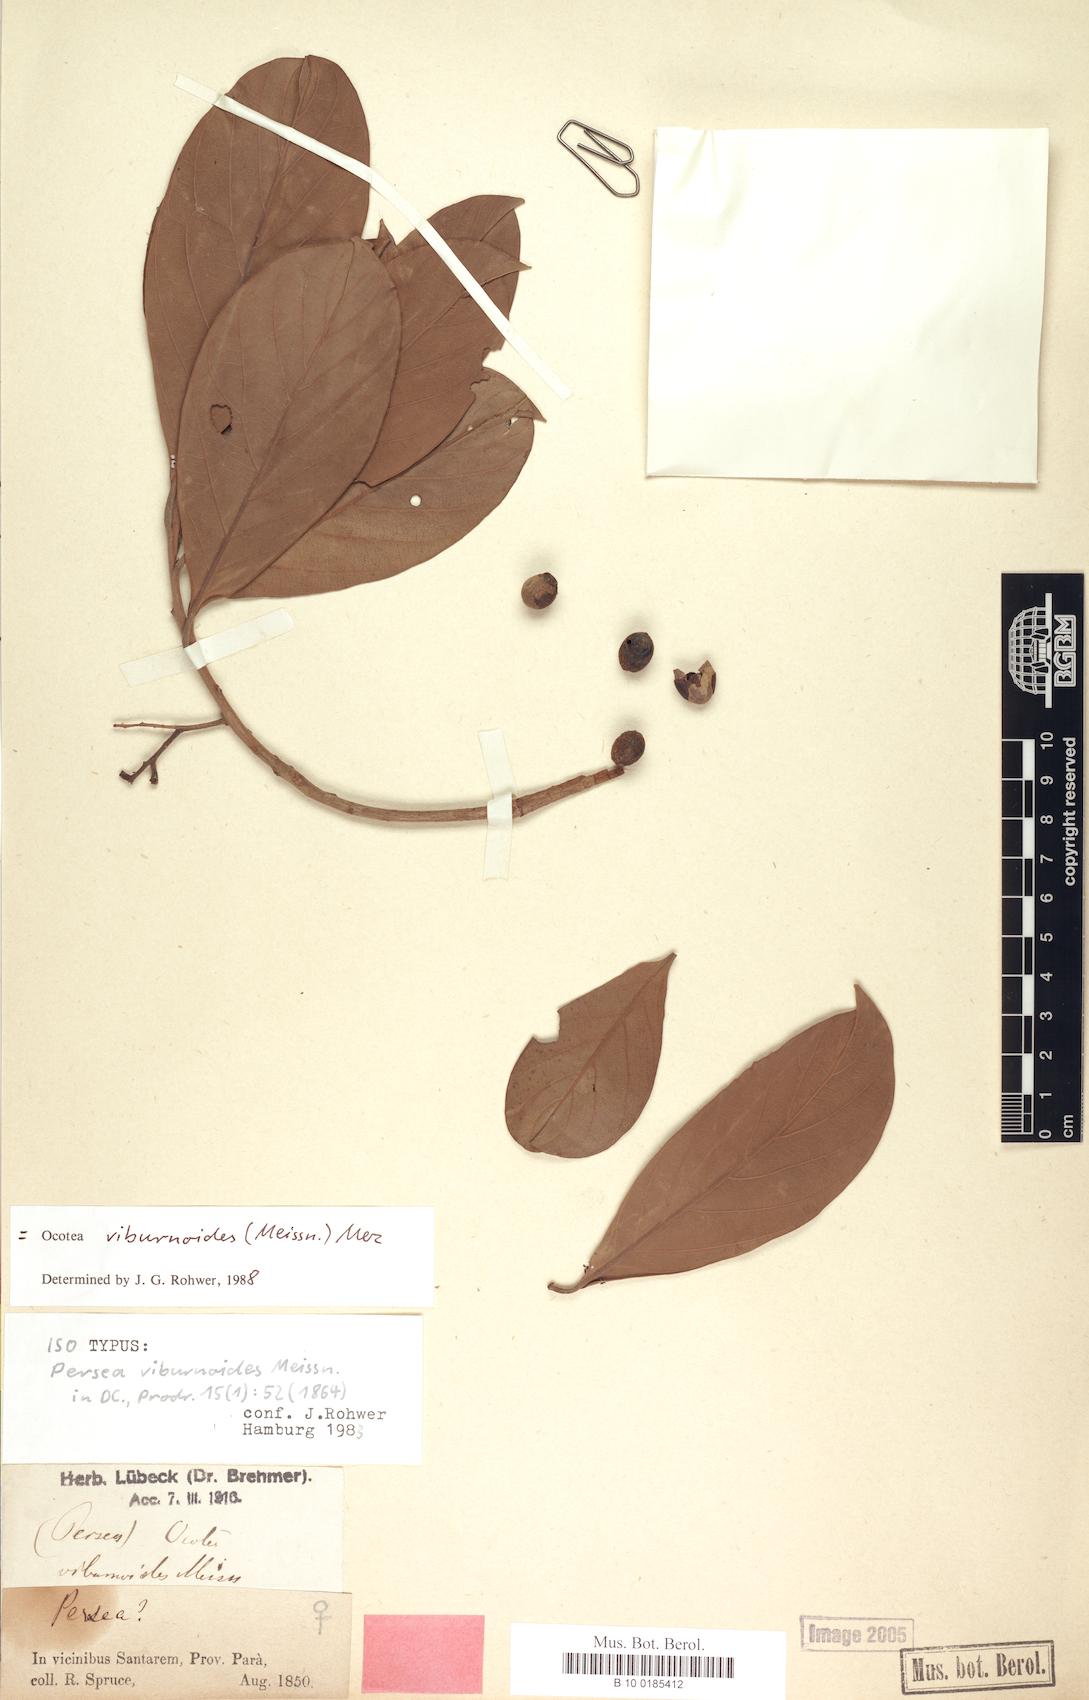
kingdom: Plantae
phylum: Tracheophyta
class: Magnoliopsida
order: Laurales
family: Lauraceae
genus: Ocotea
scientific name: Ocotea viburnoides
